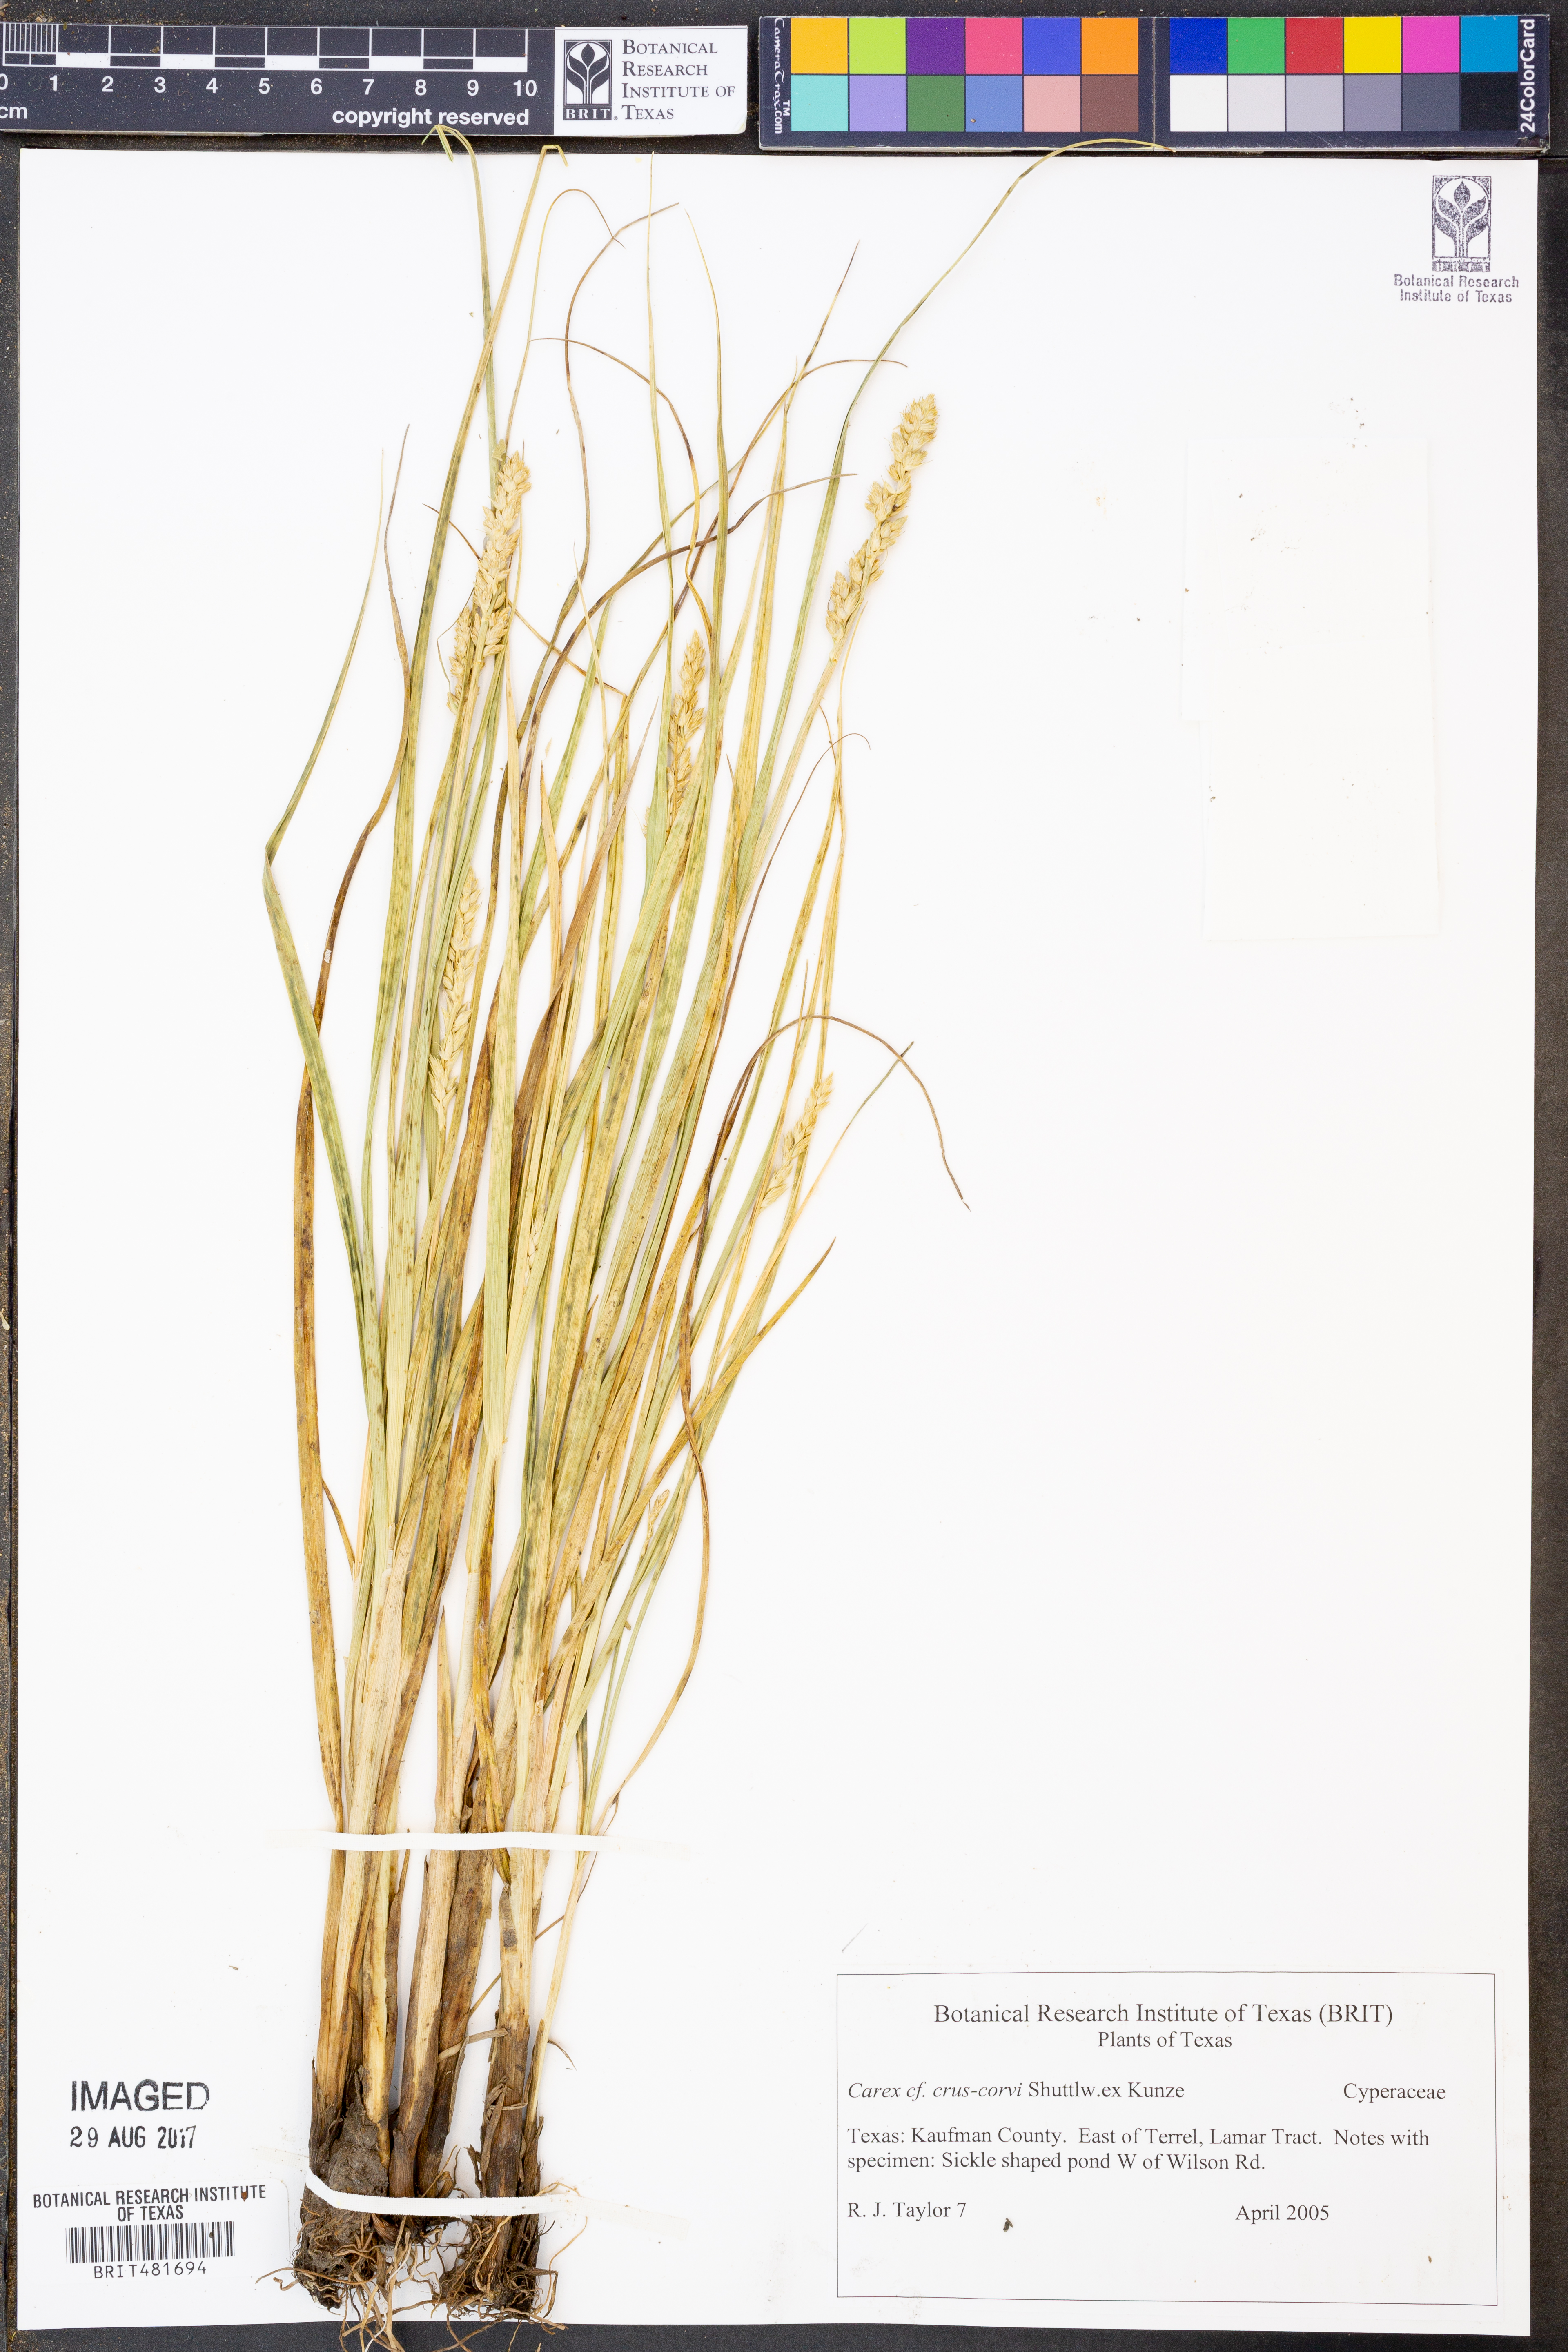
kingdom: Plantae
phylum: Tracheophyta
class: Liliopsida
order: Poales
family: Cyperaceae
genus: Carex
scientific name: Carex crus-corvi
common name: Crow-spur sedge
